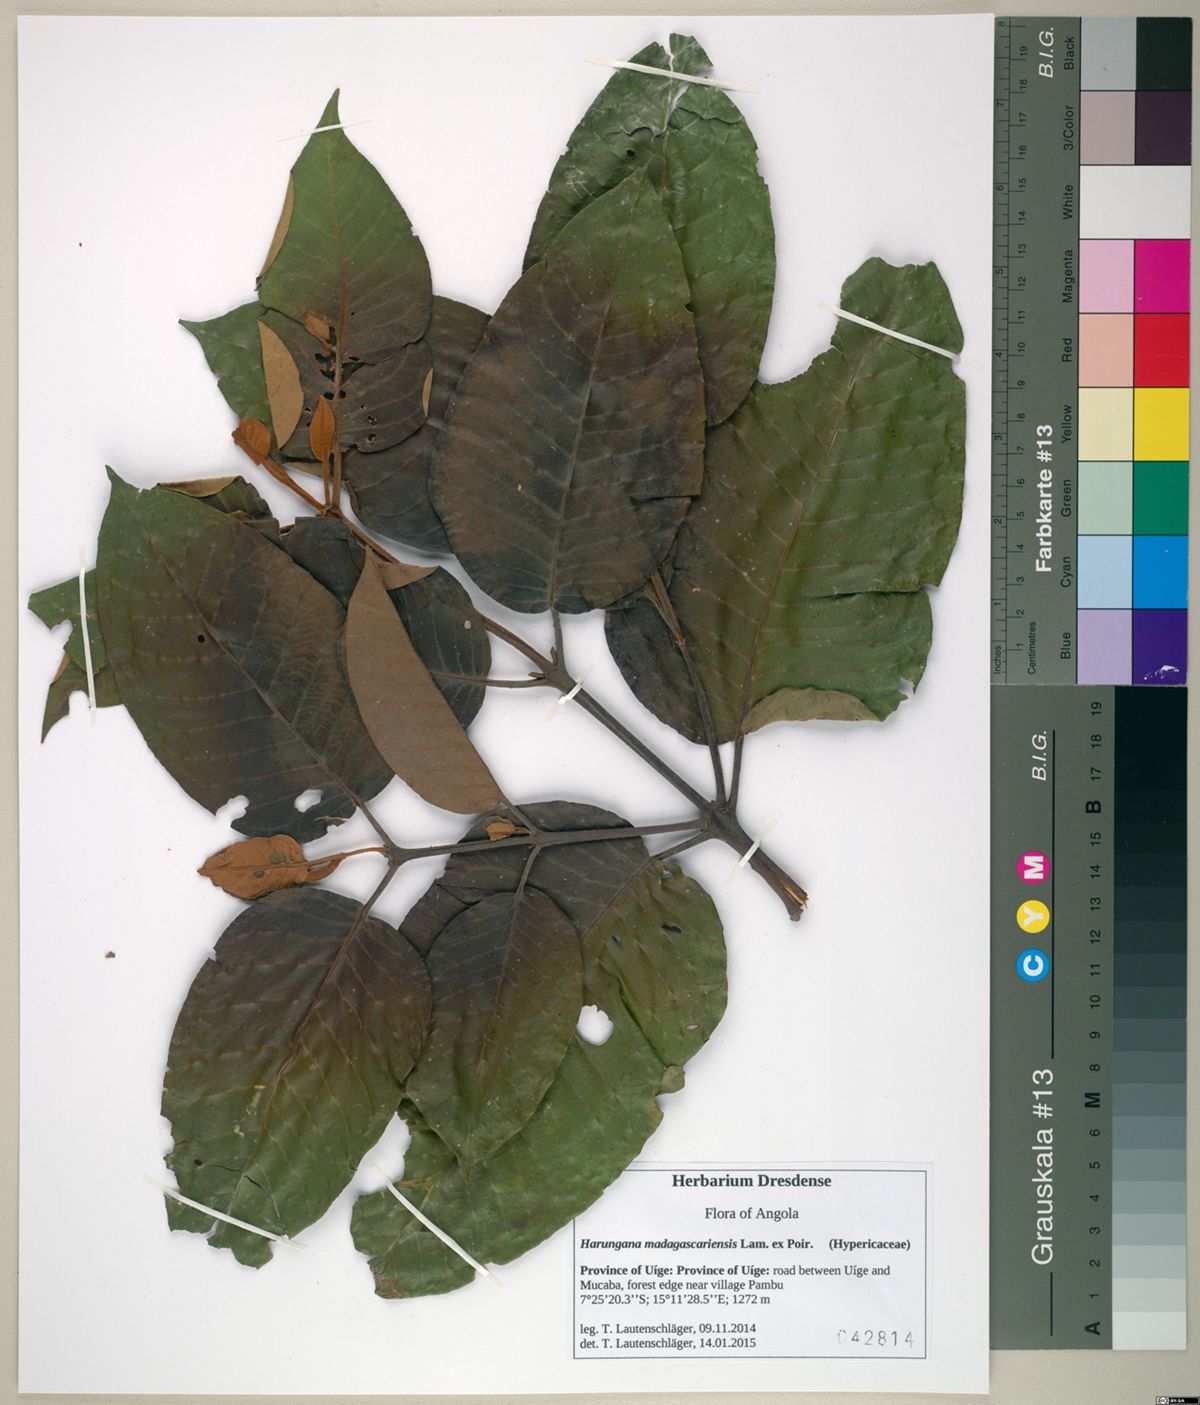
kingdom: Plantae
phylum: Tracheophyta
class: Magnoliopsida
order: Malpighiales
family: Hypericaceae
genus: Harungana
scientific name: Harungana madagascariensis
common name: Orange milktree
